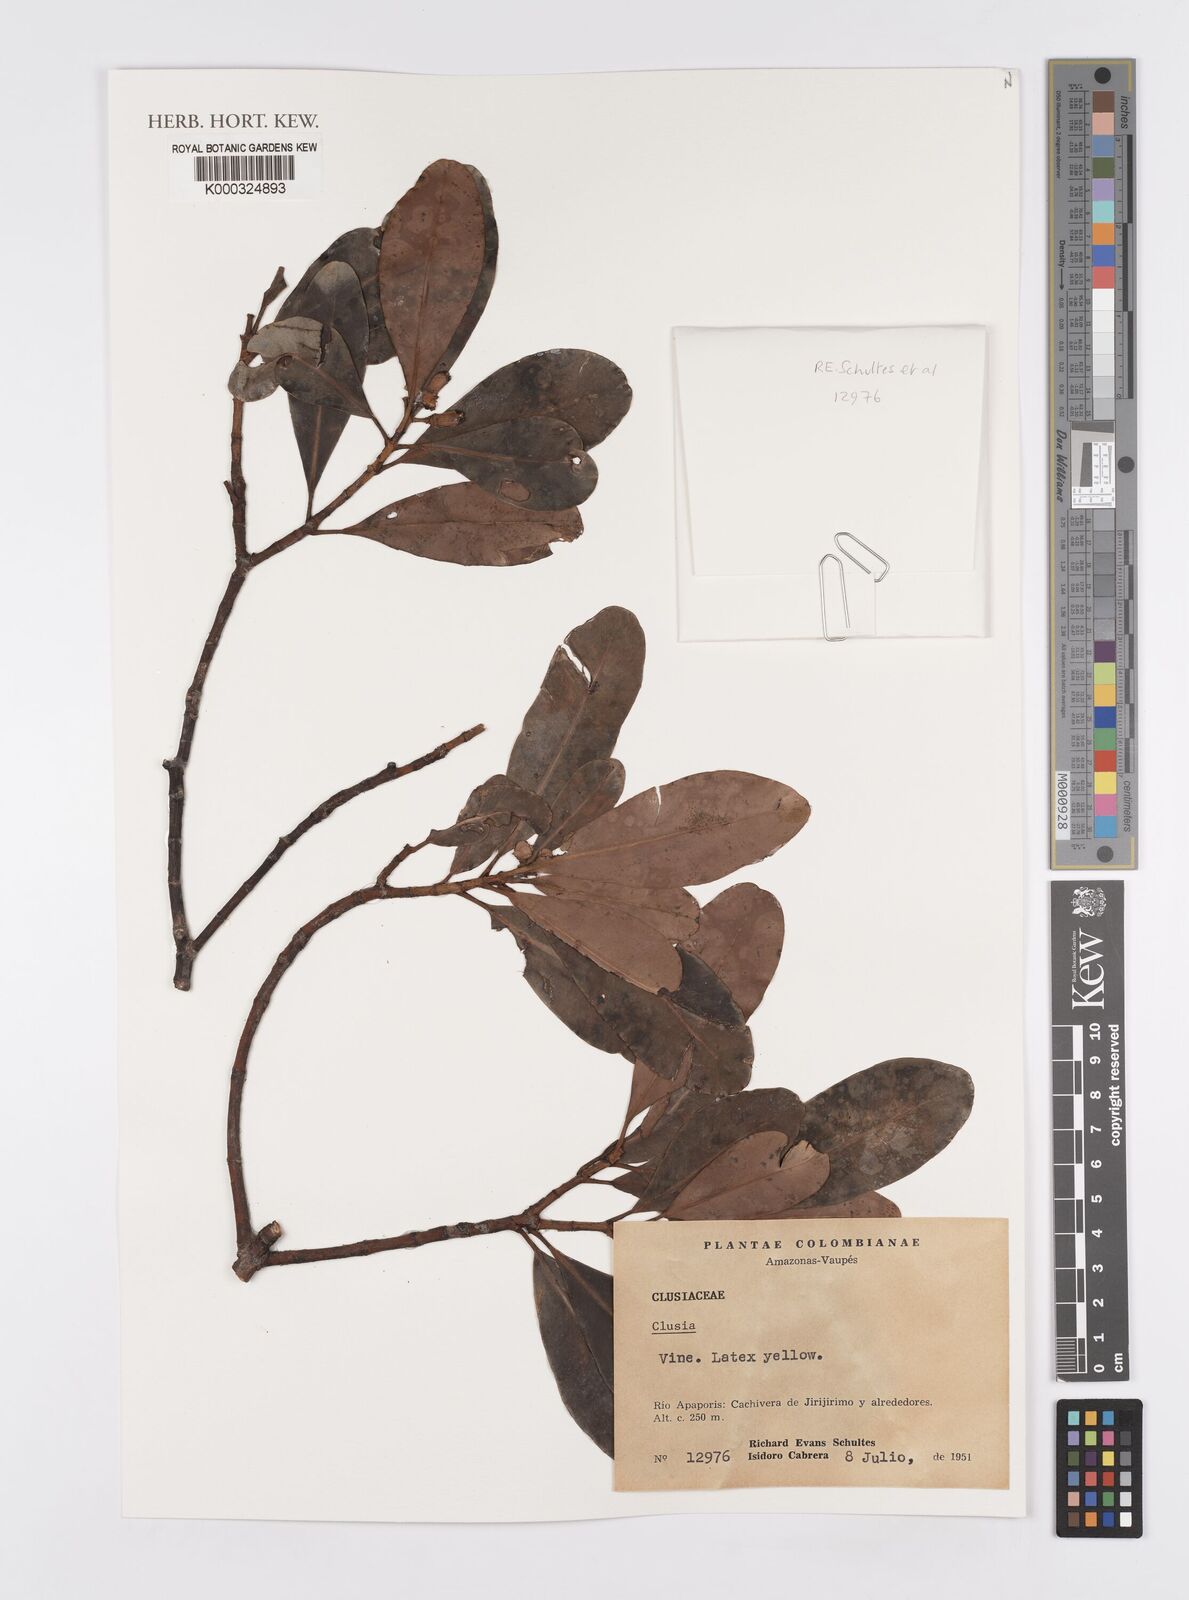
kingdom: Plantae
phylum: Tracheophyta
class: Magnoliopsida
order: Malpighiales
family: Clusiaceae
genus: Clusia
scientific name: Clusia
